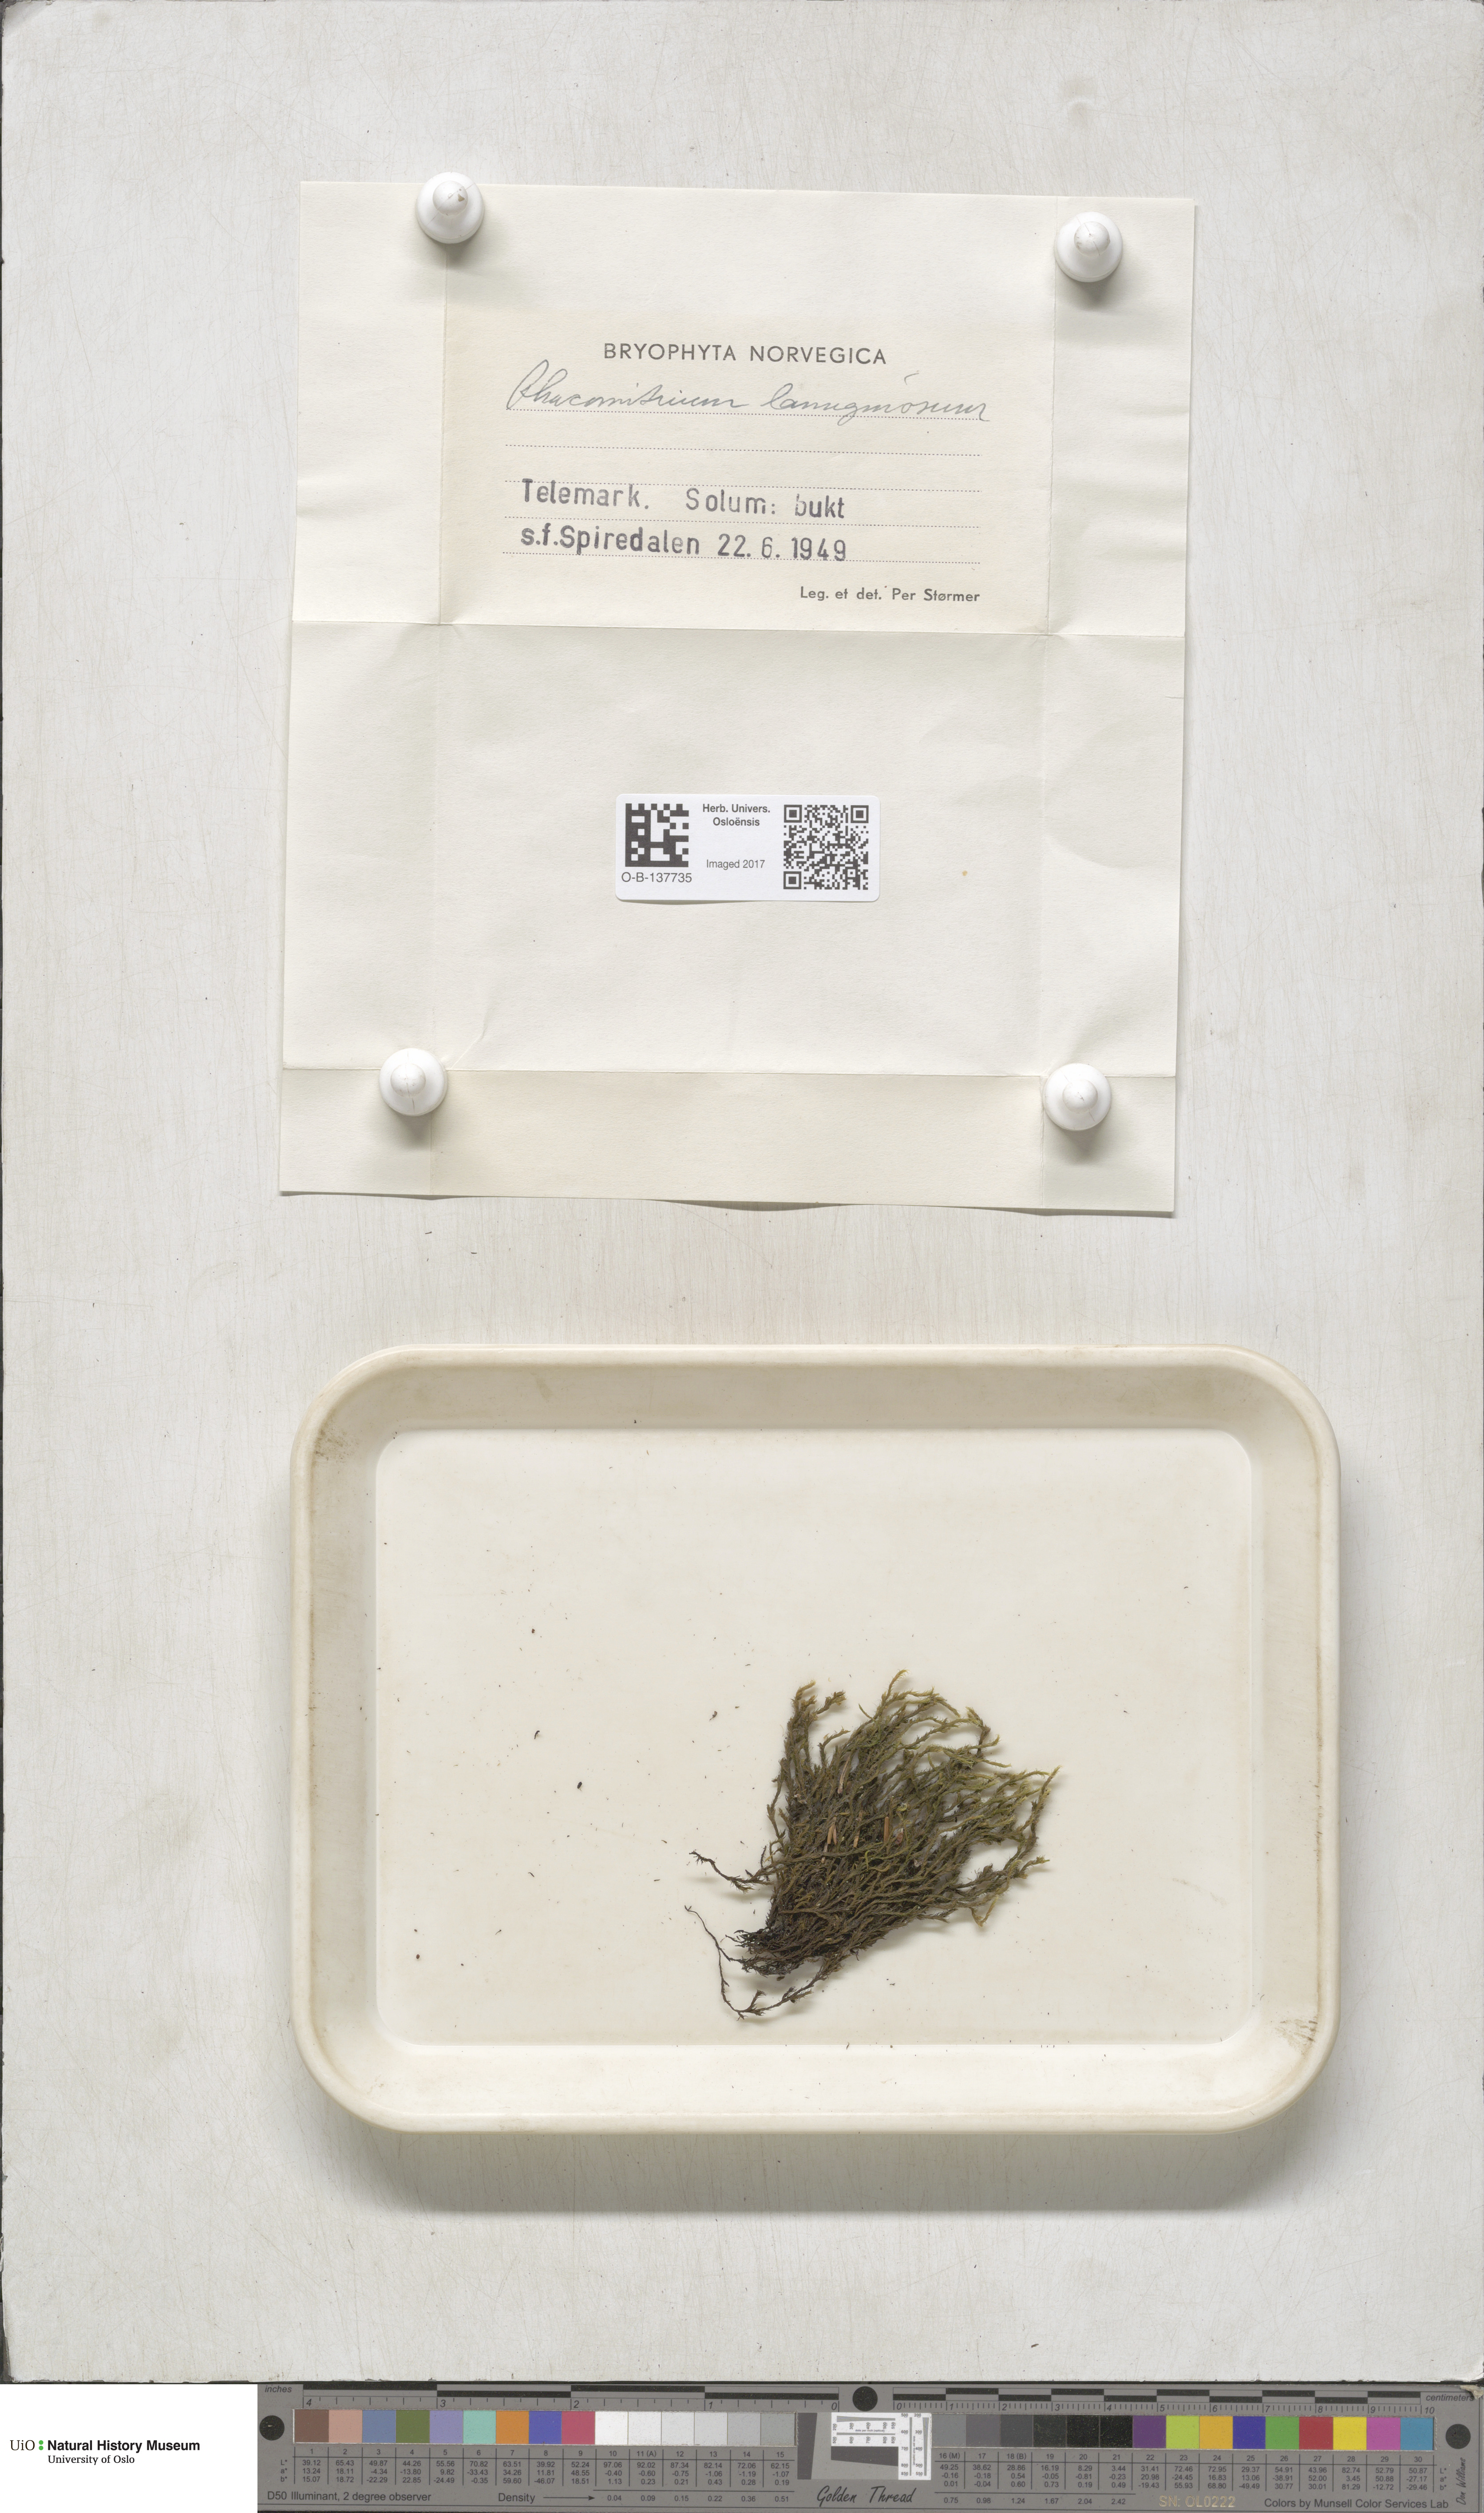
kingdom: Plantae
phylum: Bryophyta
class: Bryopsida
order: Grimmiales
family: Grimmiaceae
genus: Racomitrium
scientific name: Racomitrium lanuginosum
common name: Hoary rock moss
